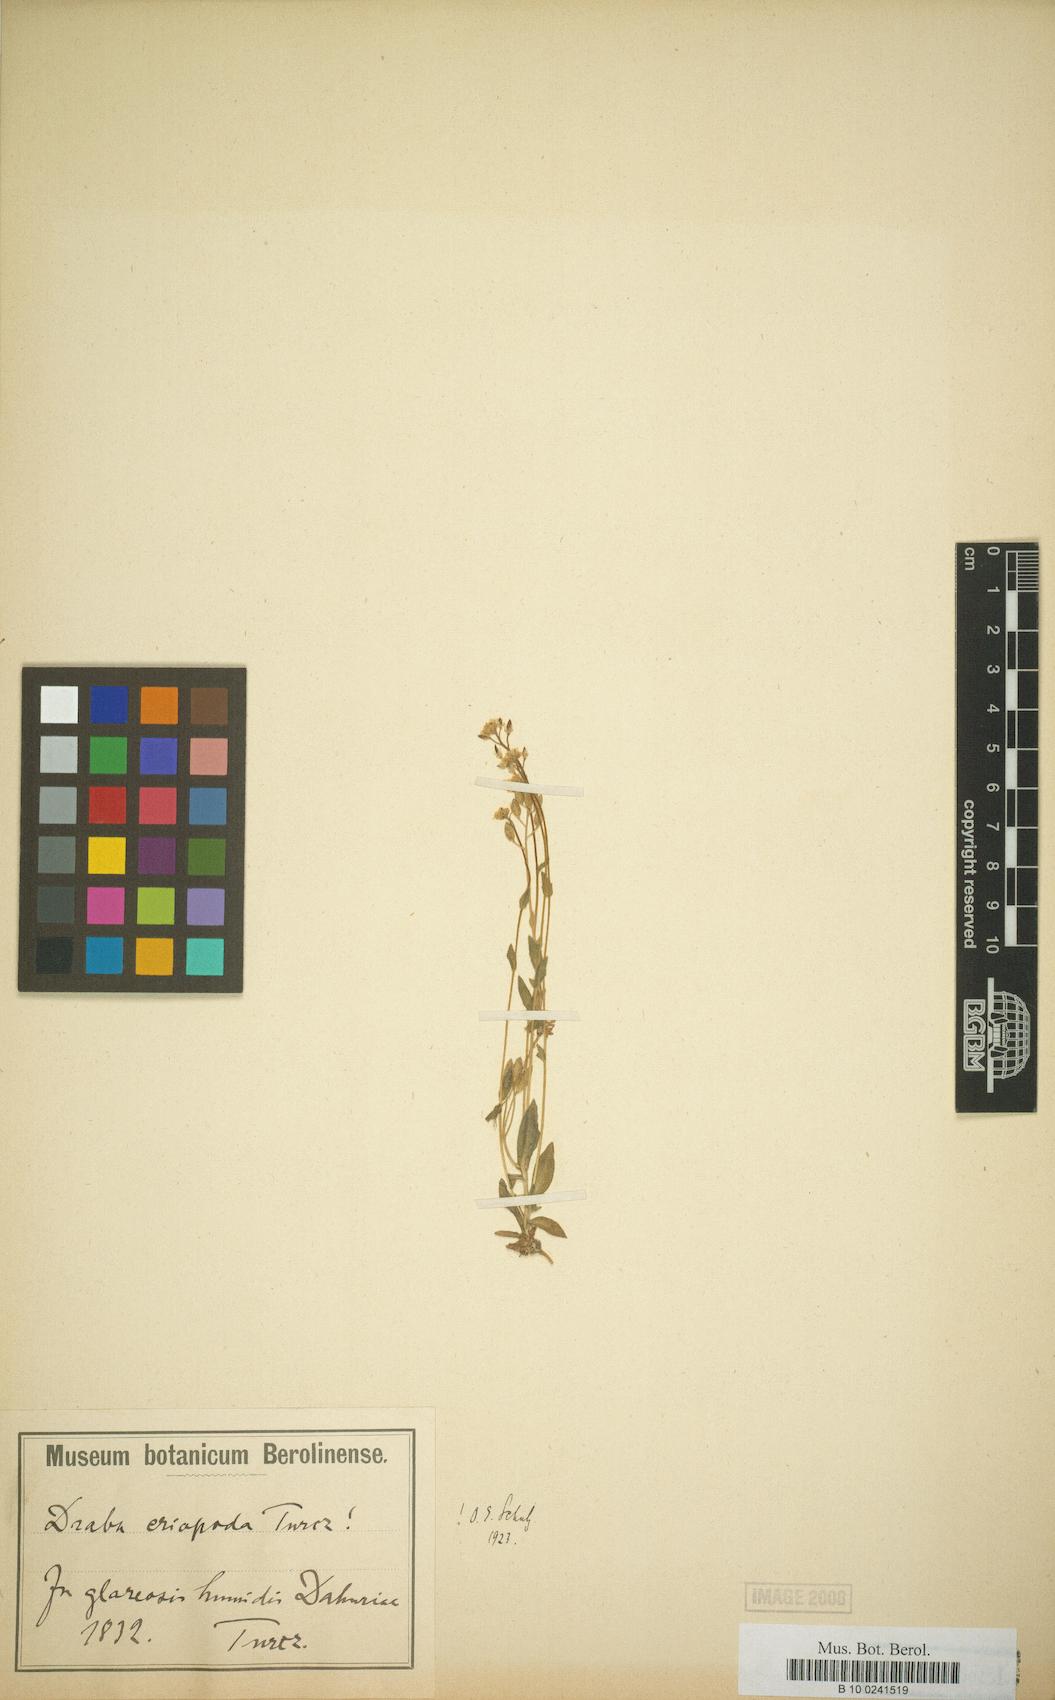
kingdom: Plantae
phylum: Tracheophyta
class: Magnoliopsida
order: Brassicales
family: Brassicaceae
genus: Draba
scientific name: Draba eriopoda
